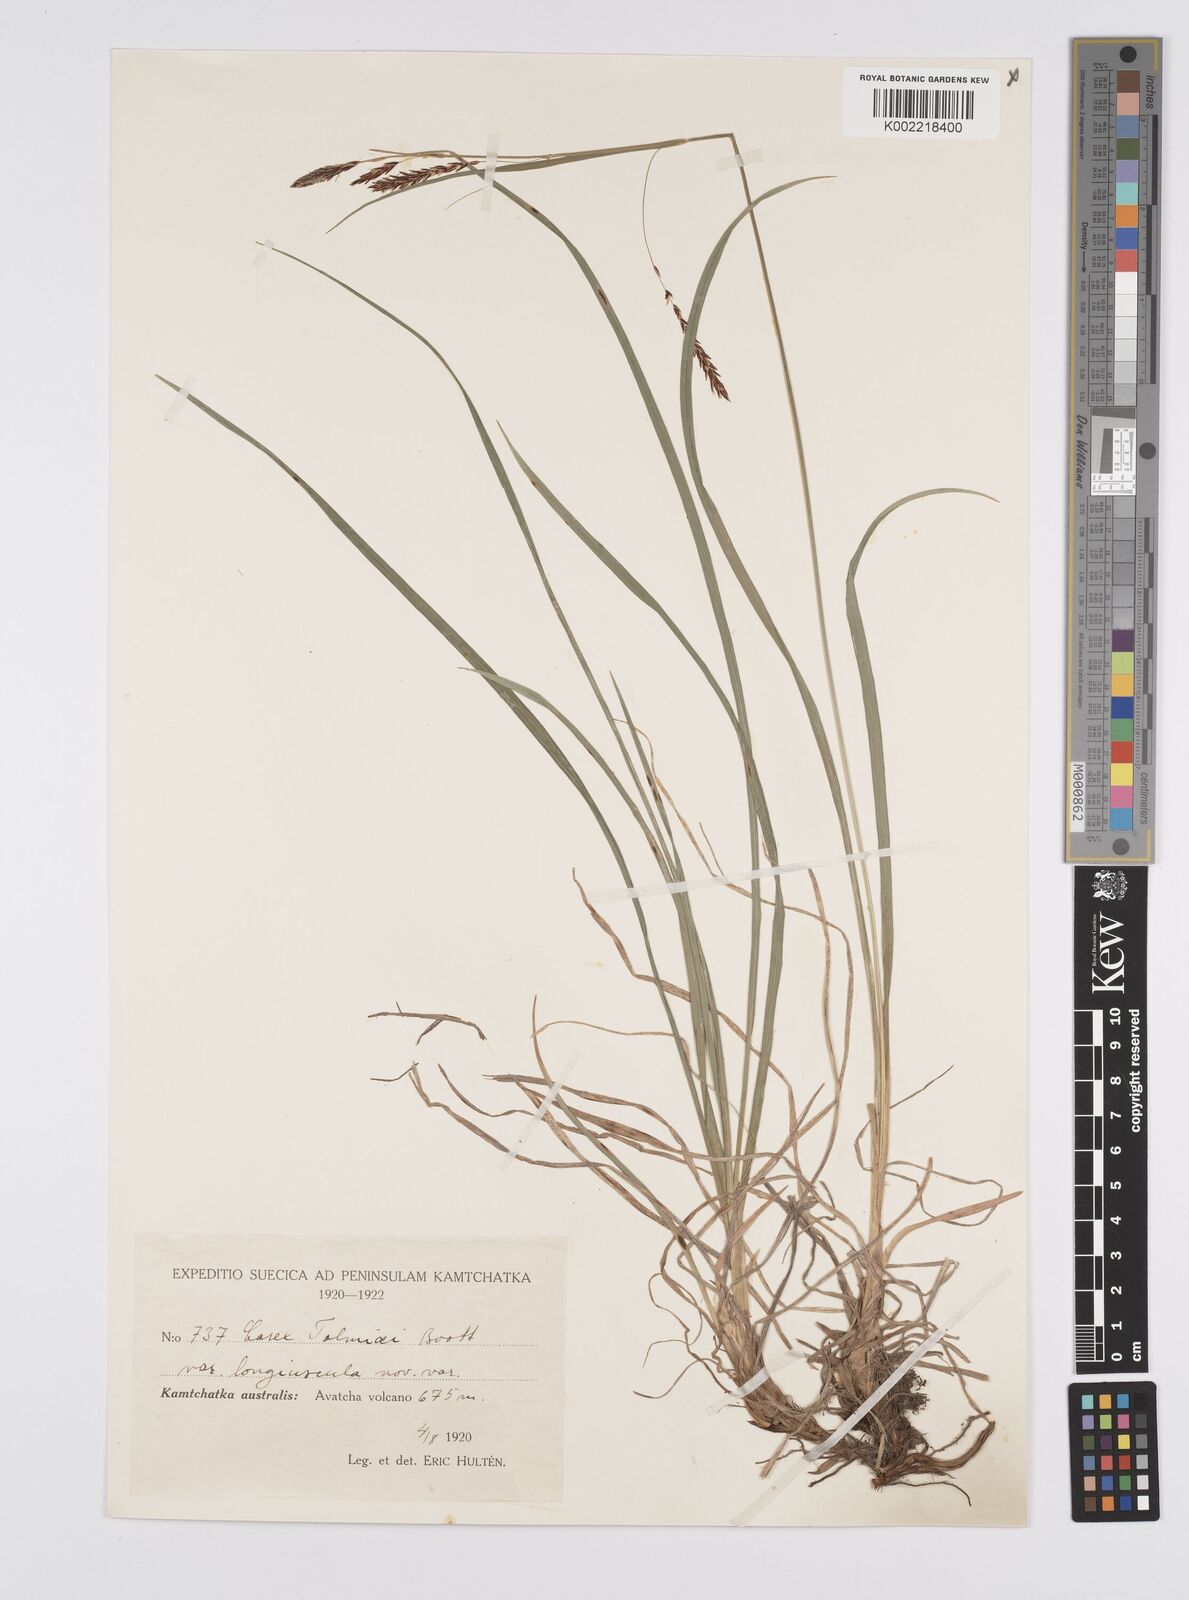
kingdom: Plantae
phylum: Tracheophyta
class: Liliopsida
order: Poales
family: Cyperaceae
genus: Carex
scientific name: Carex spectabilis
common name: Northwestern showy sedge
